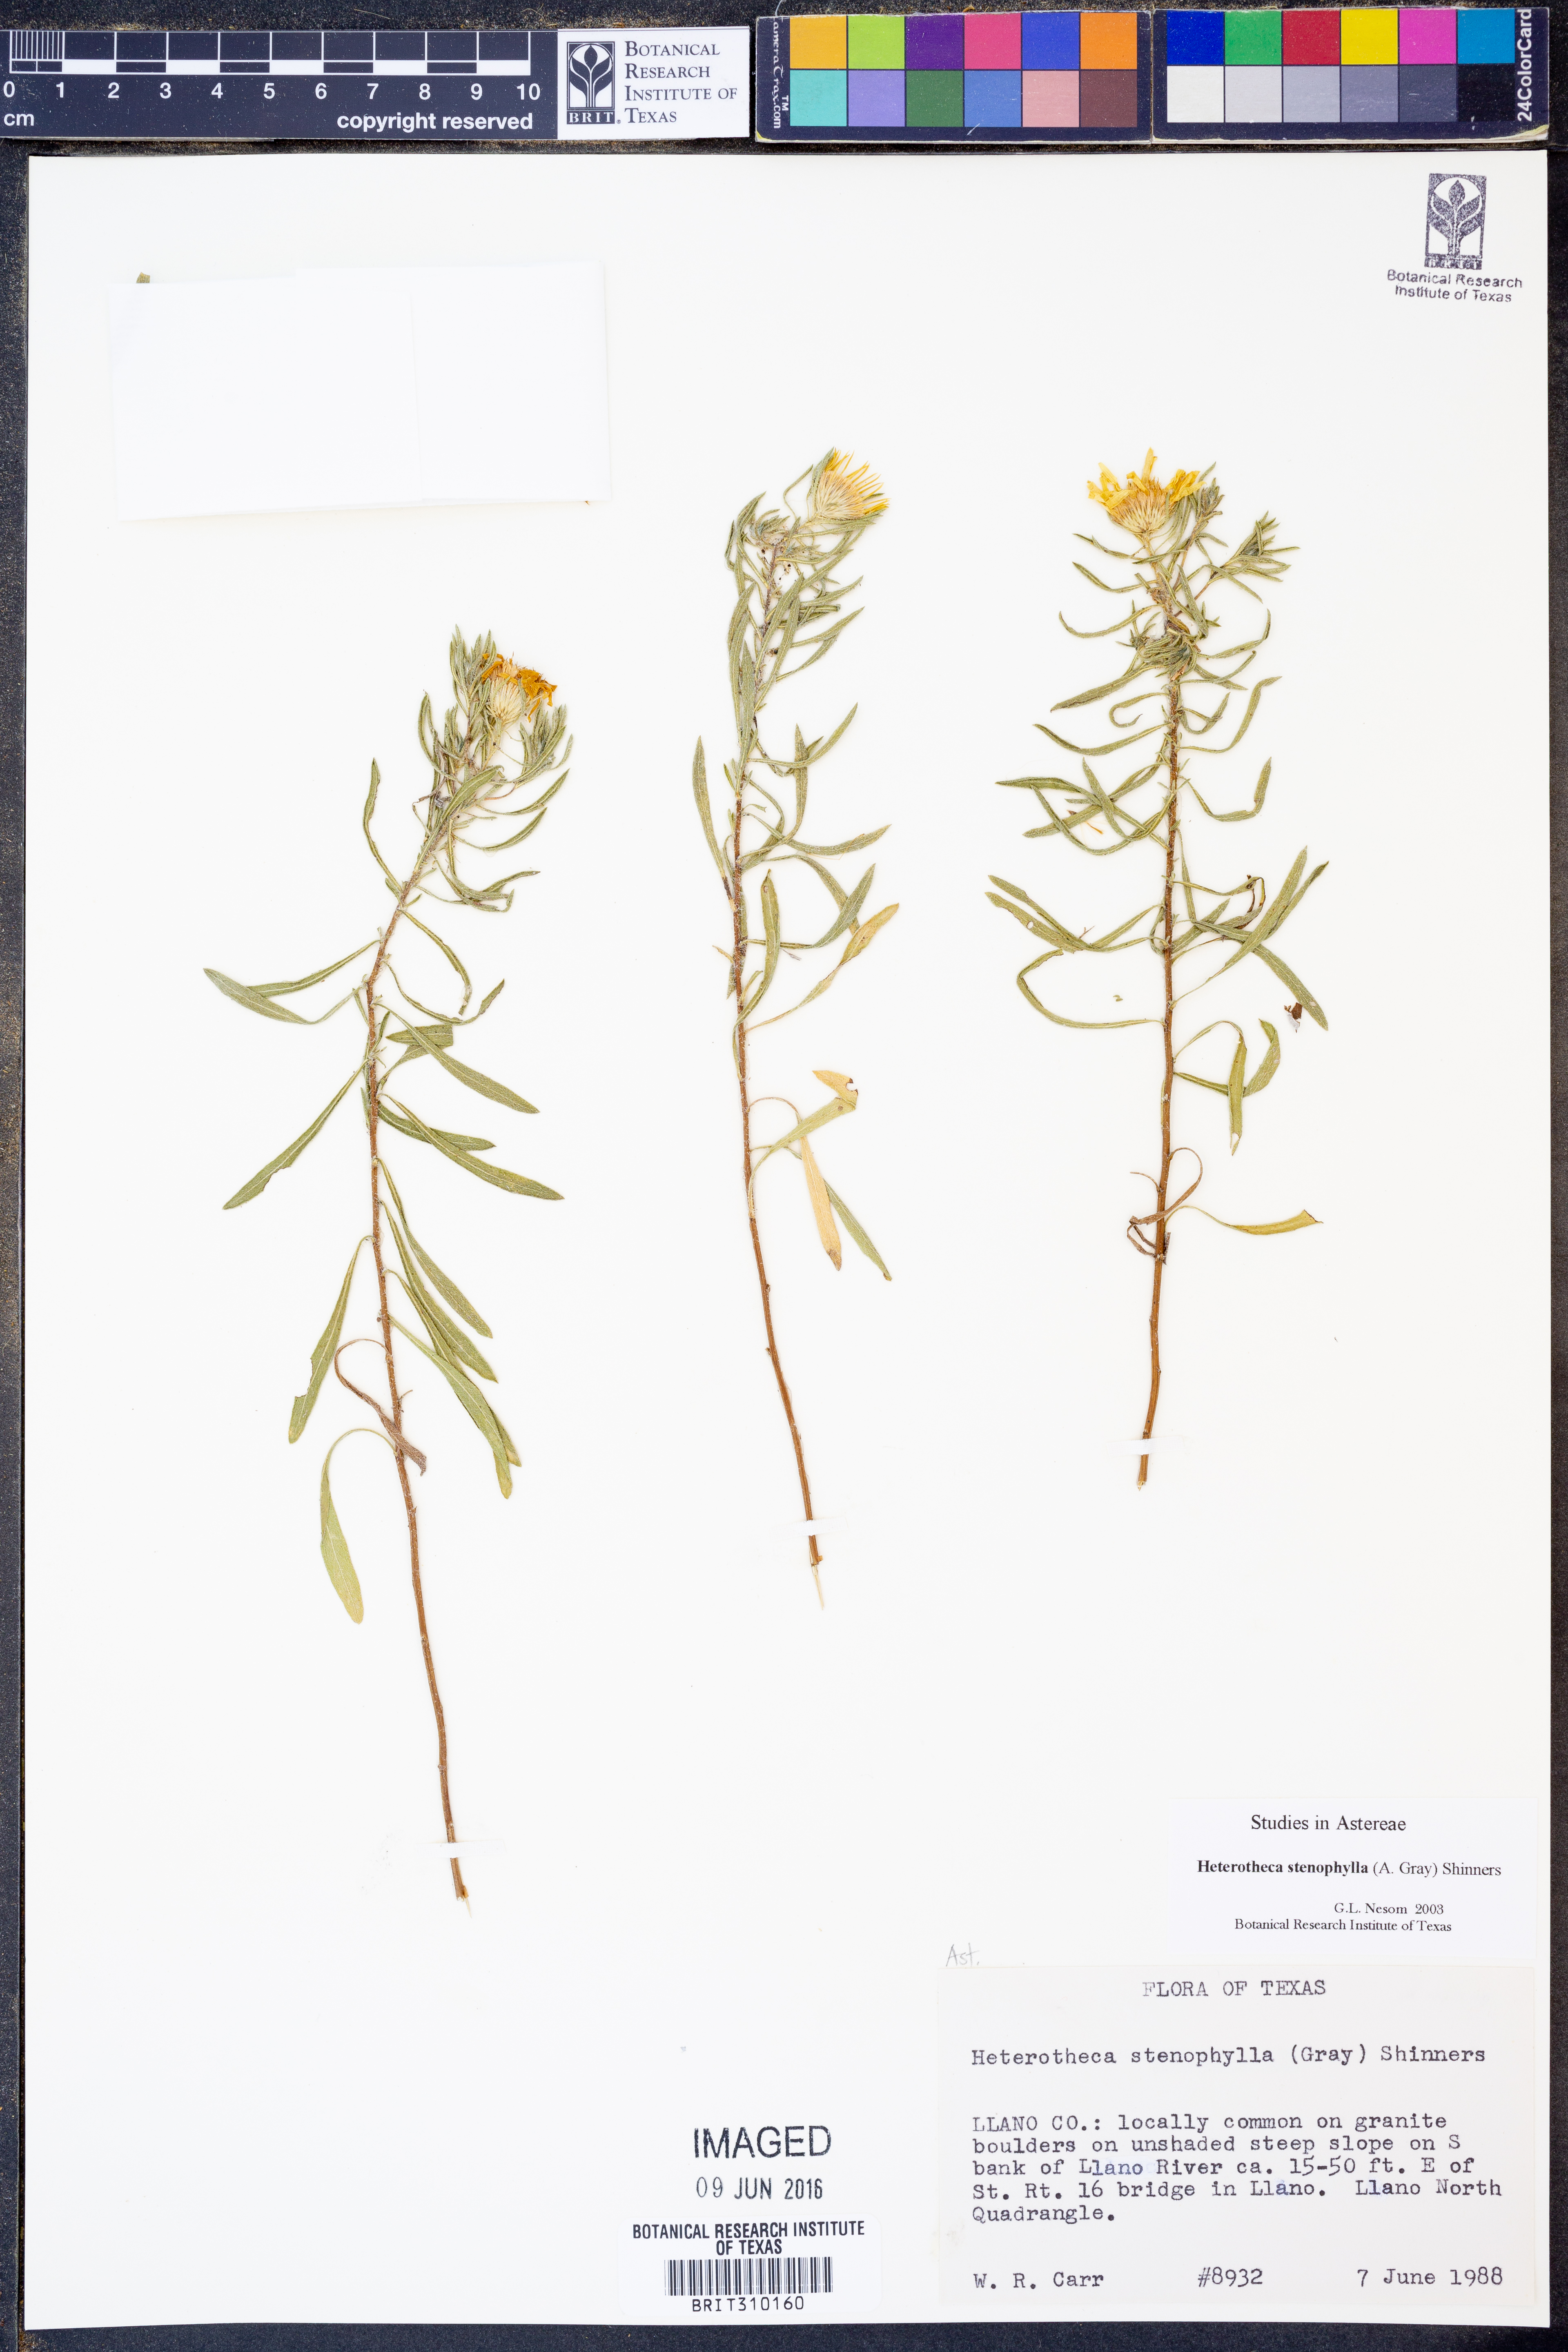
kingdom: Plantae
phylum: Tracheophyta
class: Magnoliopsida
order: Asterales
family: Asteraceae
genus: Heterotheca
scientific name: Heterotheca stenophylla
